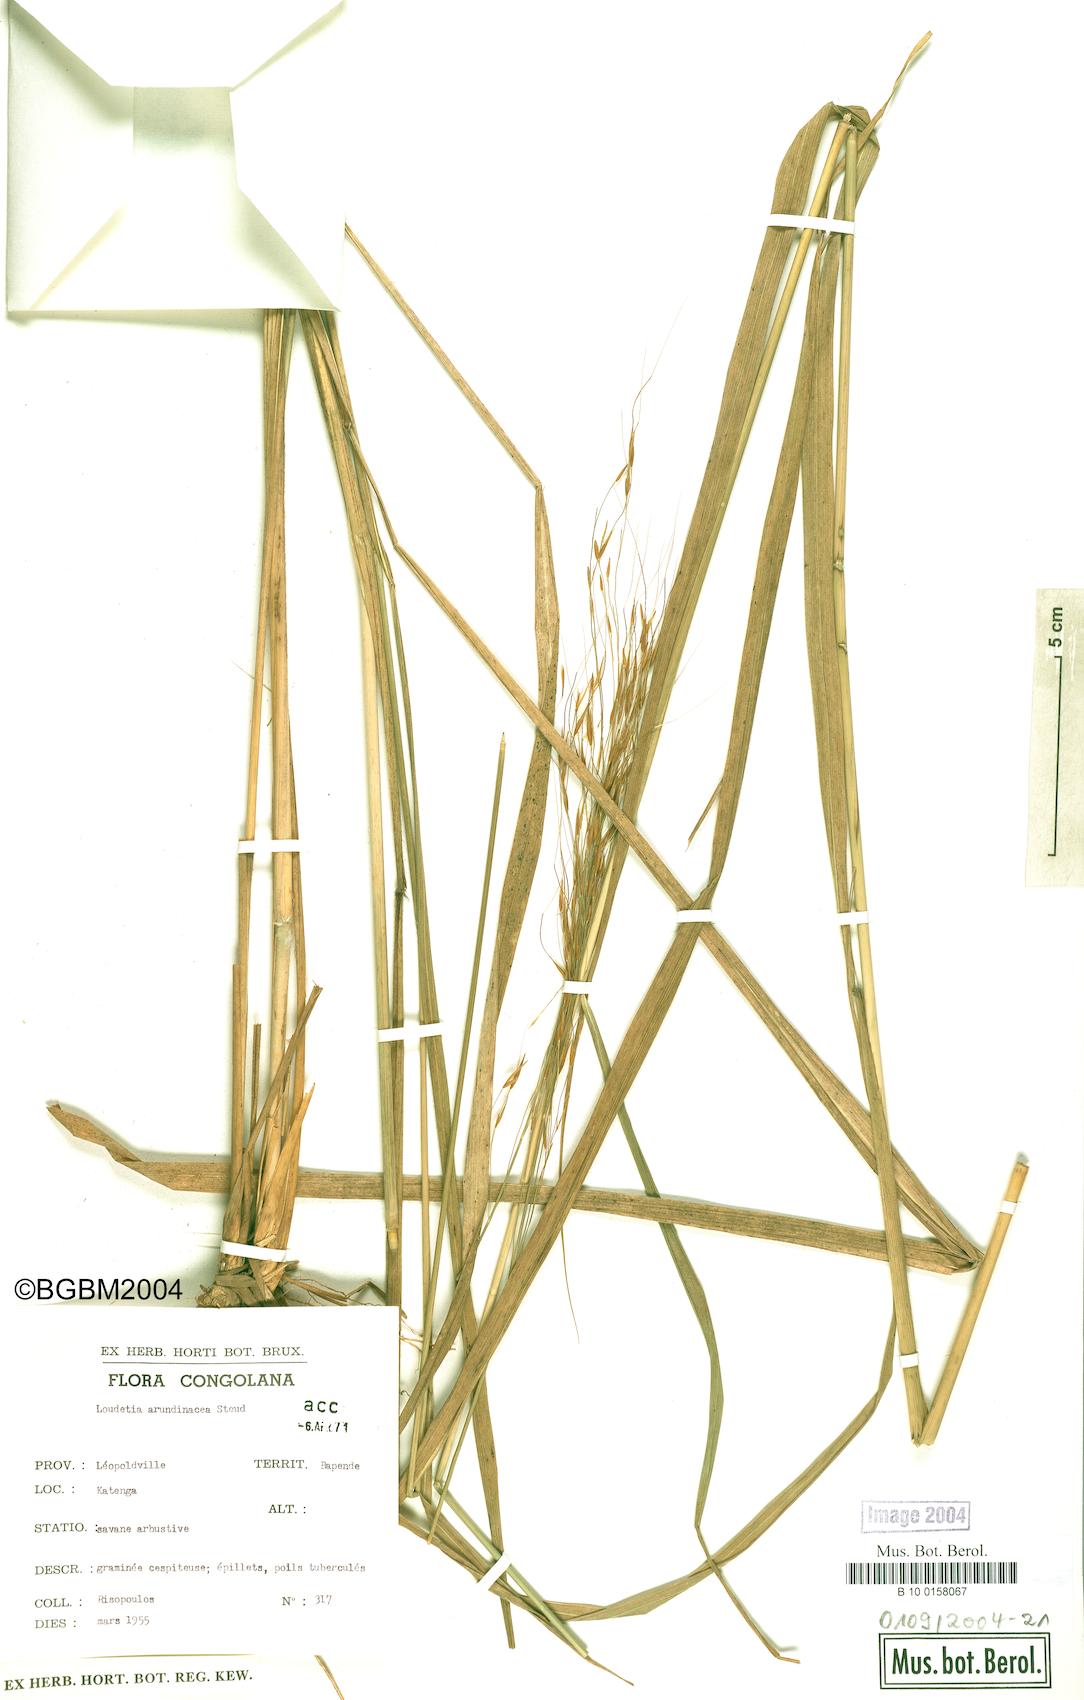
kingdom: Plantae
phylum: Tracheophyta
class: Liliopsida
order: Poales
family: Poaceae
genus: Loudetia
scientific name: Loudetia arundinacea
